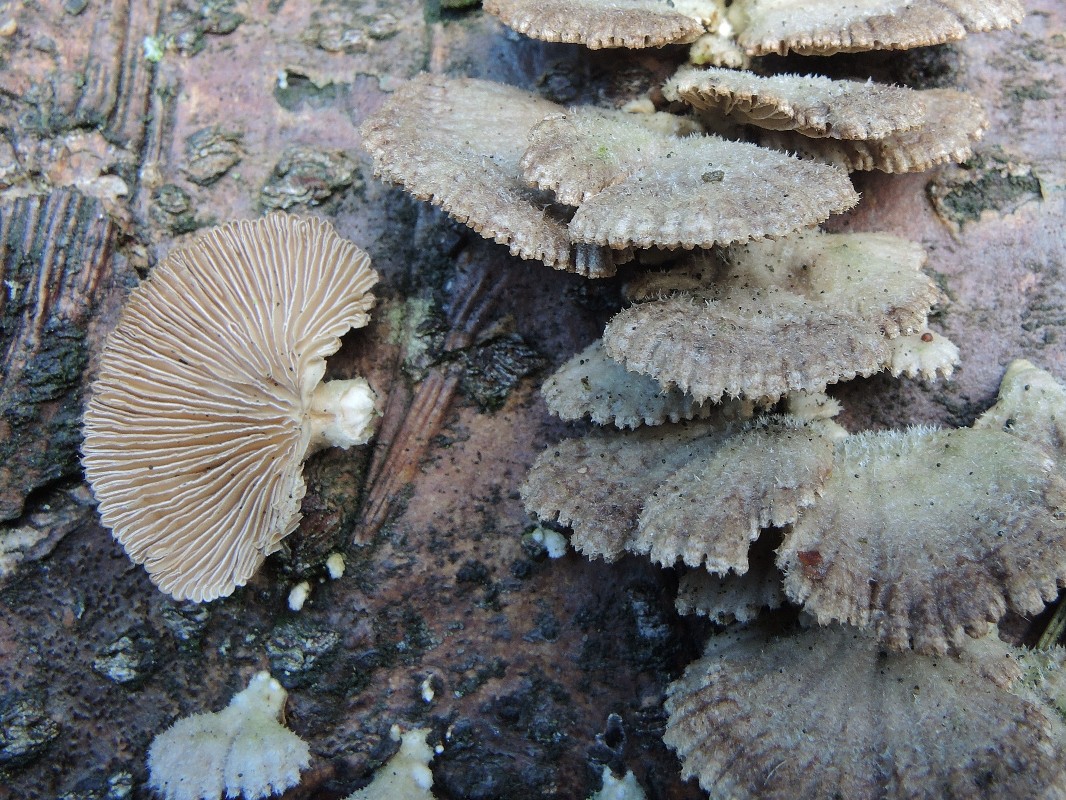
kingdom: Fungi
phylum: Basidiomycota
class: Agaricomycetes
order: Agaricales
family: Schizophyllaceae
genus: Schizophyllum
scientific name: Schizophyllum commune
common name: kløvblad
